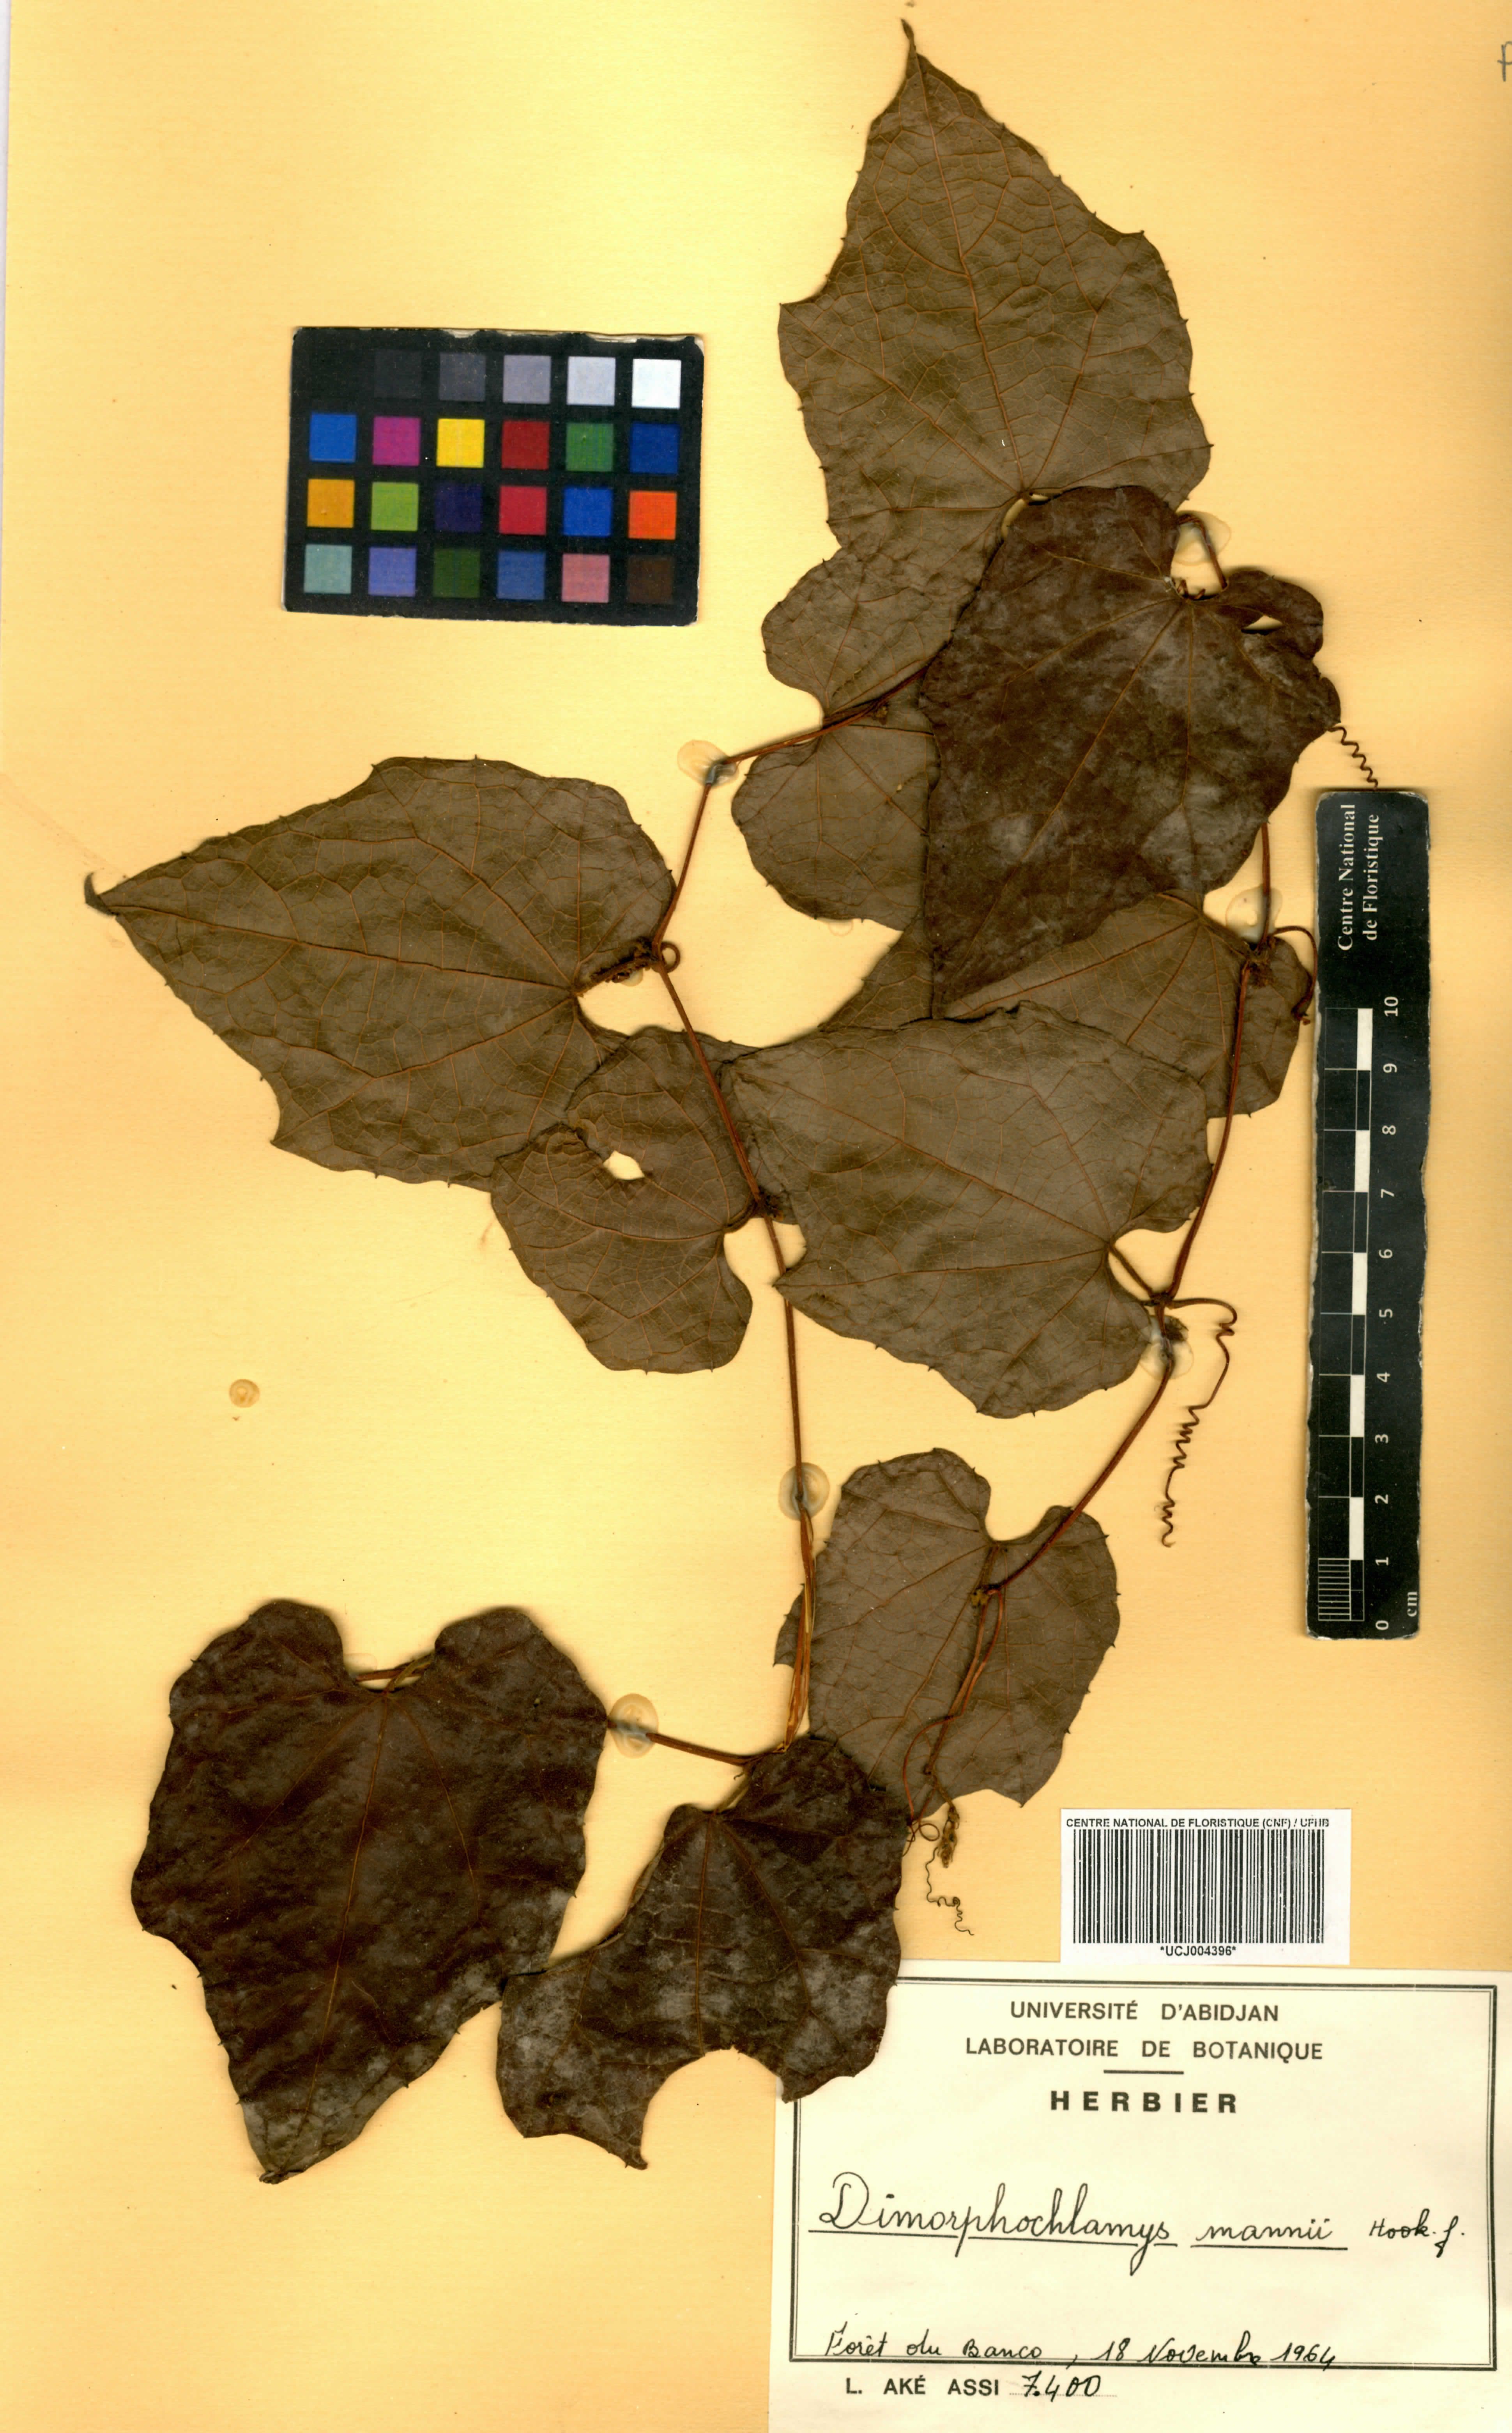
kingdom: Plantae
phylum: Tracheophyta
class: Magnoliopsida
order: Cucurbitales
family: Cucurbitaceae
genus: Momordica
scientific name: Momordica cabrae
